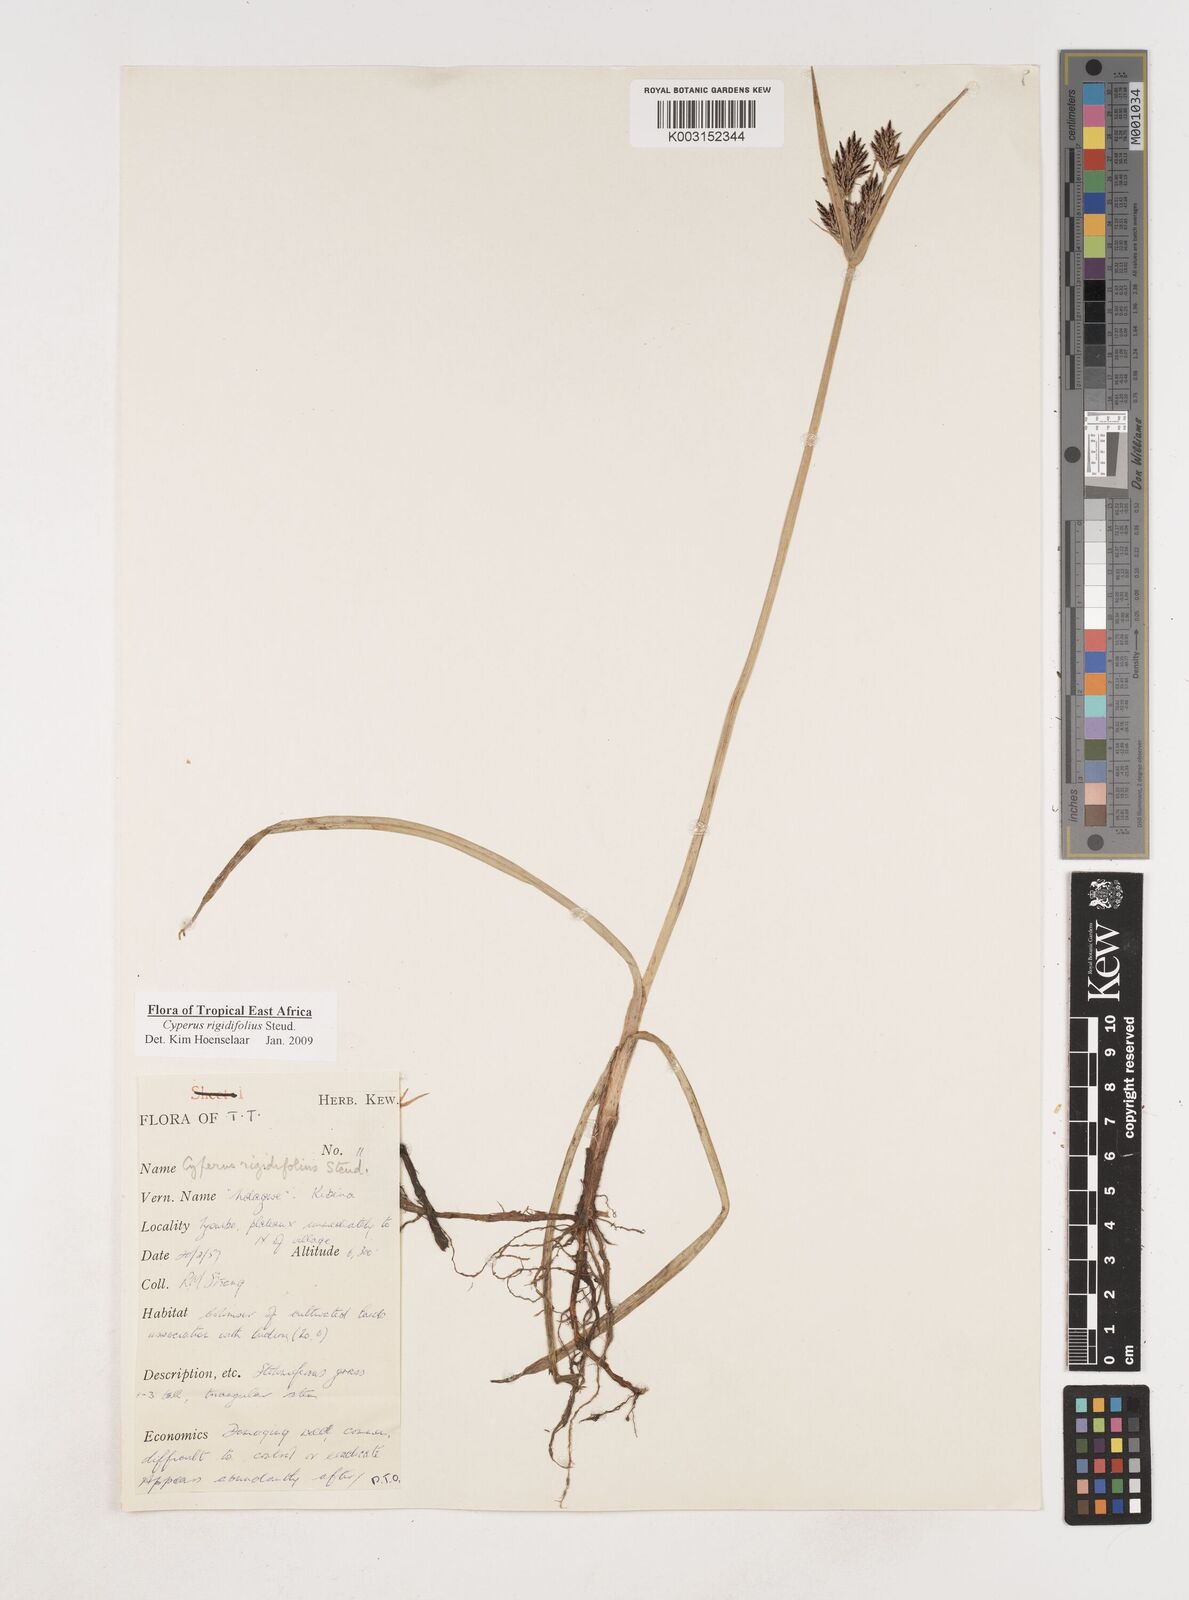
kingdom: Plantae
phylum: Tracheophyta
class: Liliopsida
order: Poales
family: Cyperaceae
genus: Cyperus
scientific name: Cyperus rigidifolius
